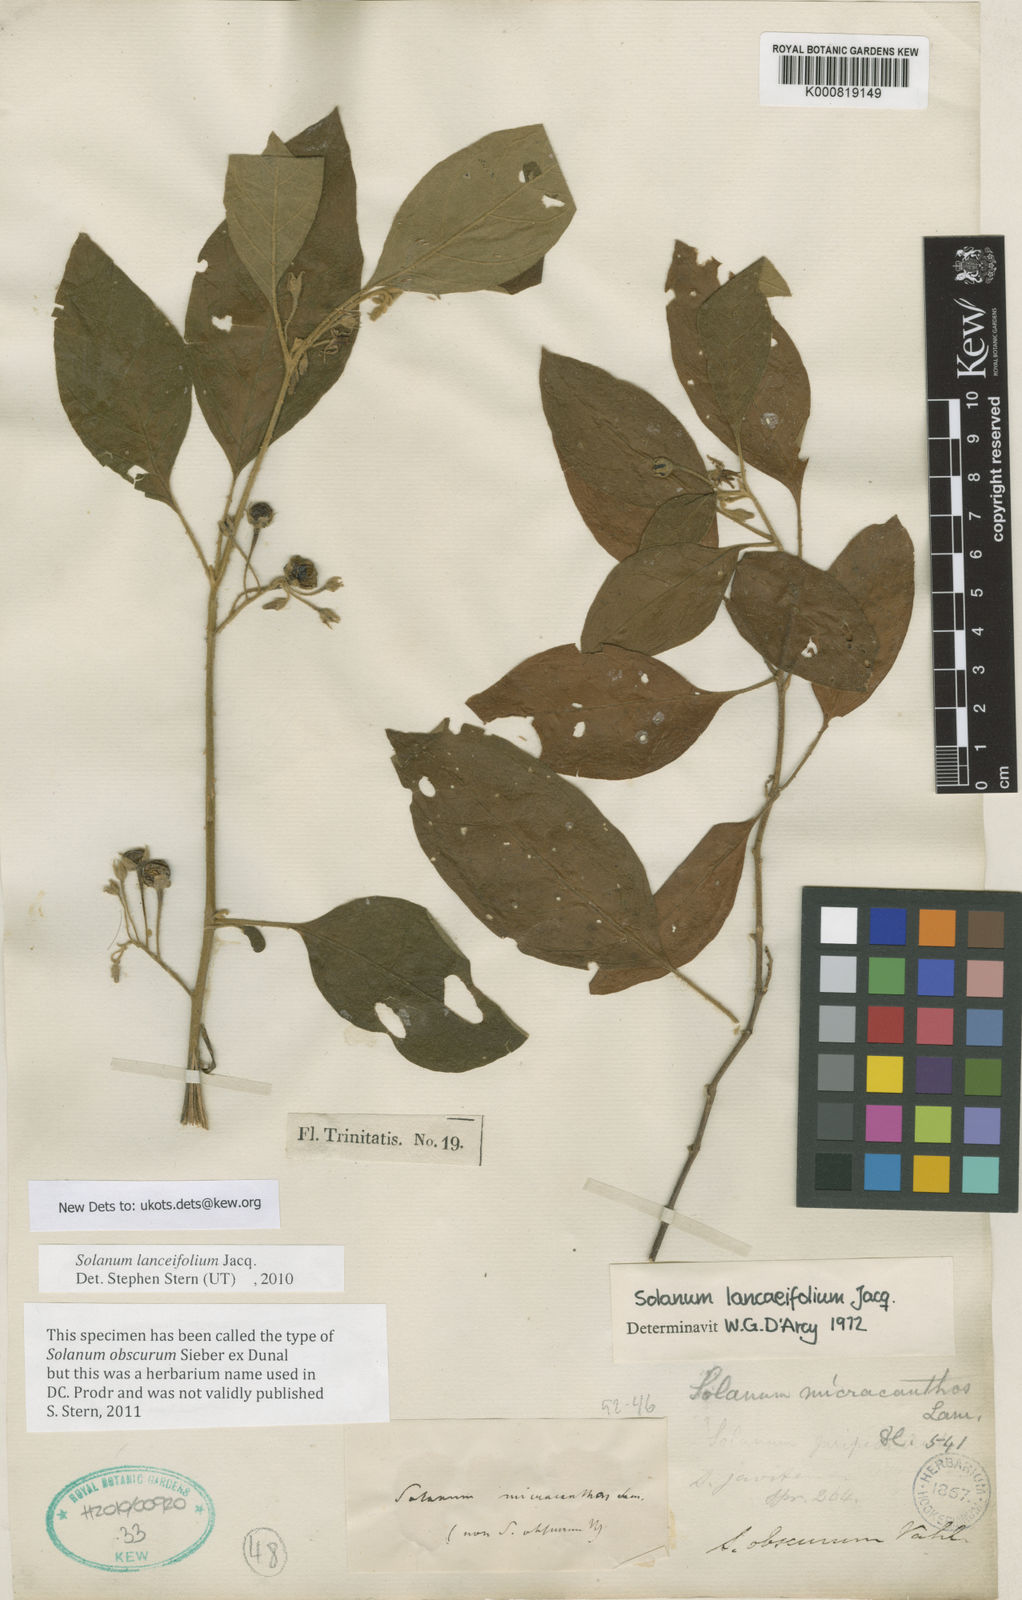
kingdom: Plantae
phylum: Tracheophyta
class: Magnoliopsida
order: Solanales
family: Solanaceae
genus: Solanum
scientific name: Solanum lanceifolium
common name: Lanceleaf nightshade
